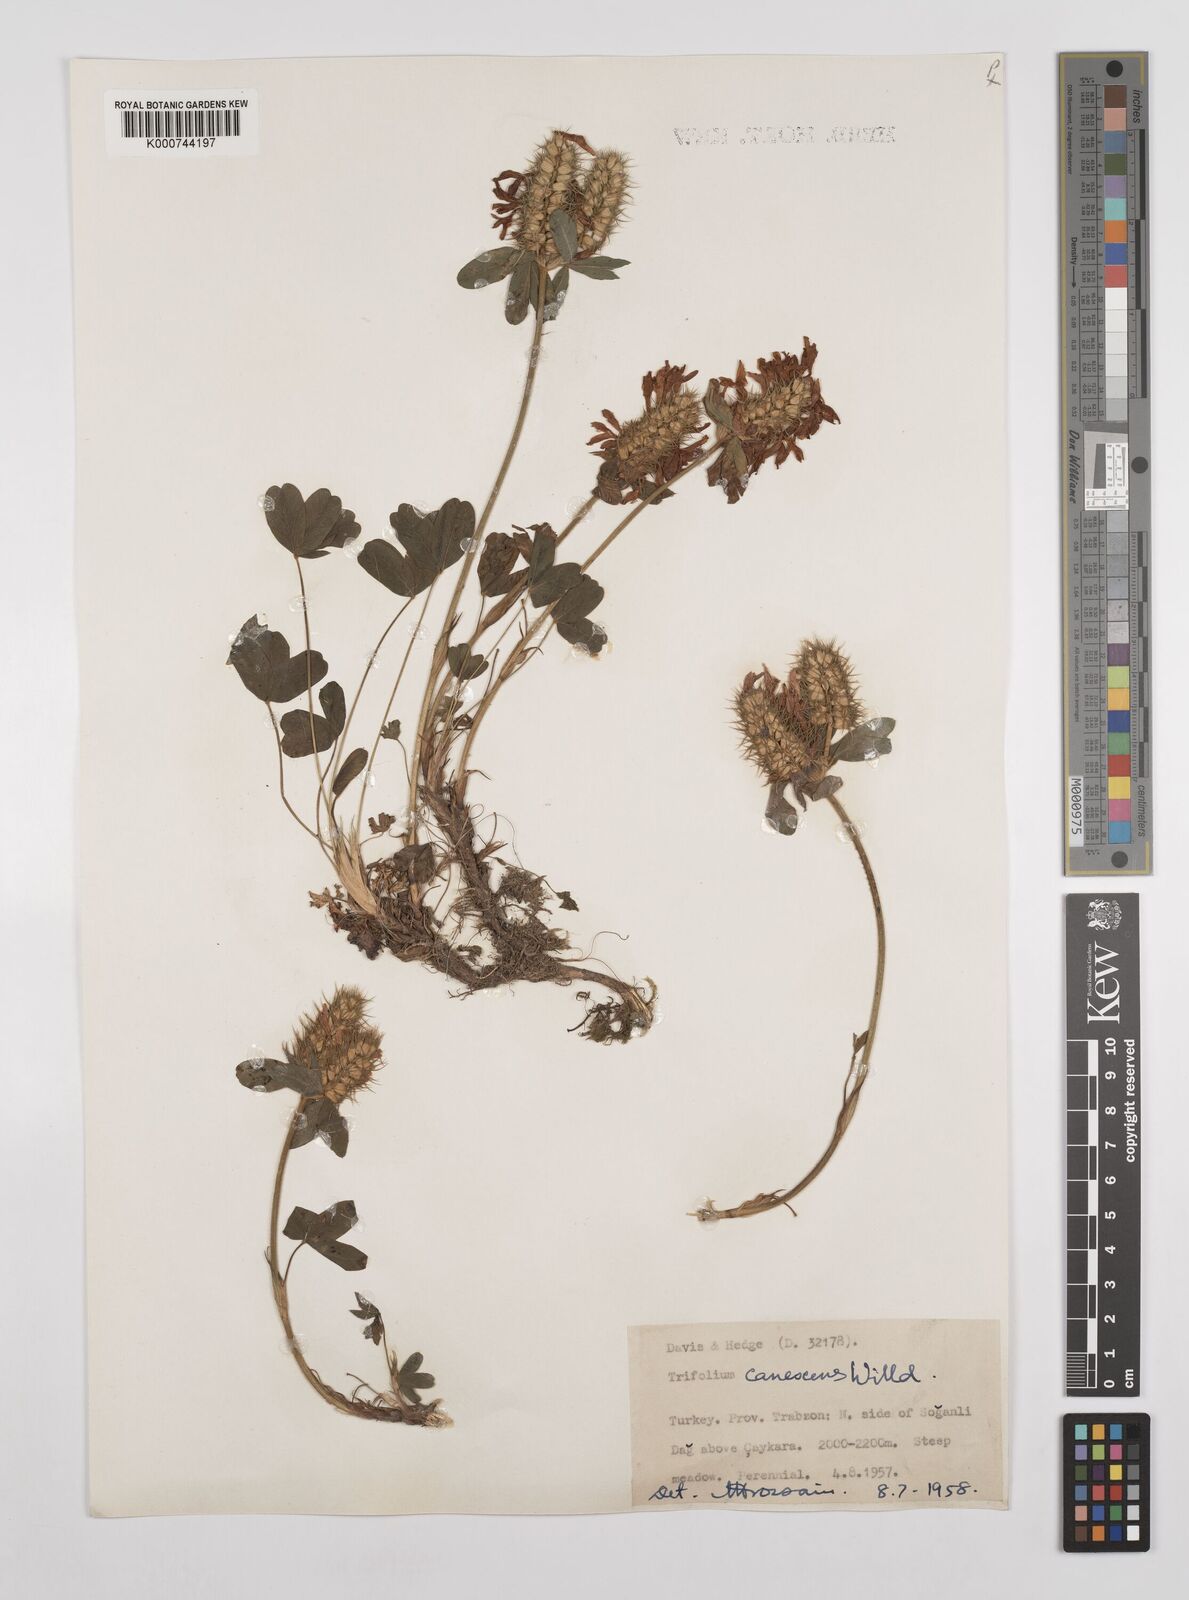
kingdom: Plantae
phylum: Tracheophyta
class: Magnoliopsida
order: Fabales
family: Fabaceae
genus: Trifolium
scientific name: Trifolium canescens
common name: Graying clover
